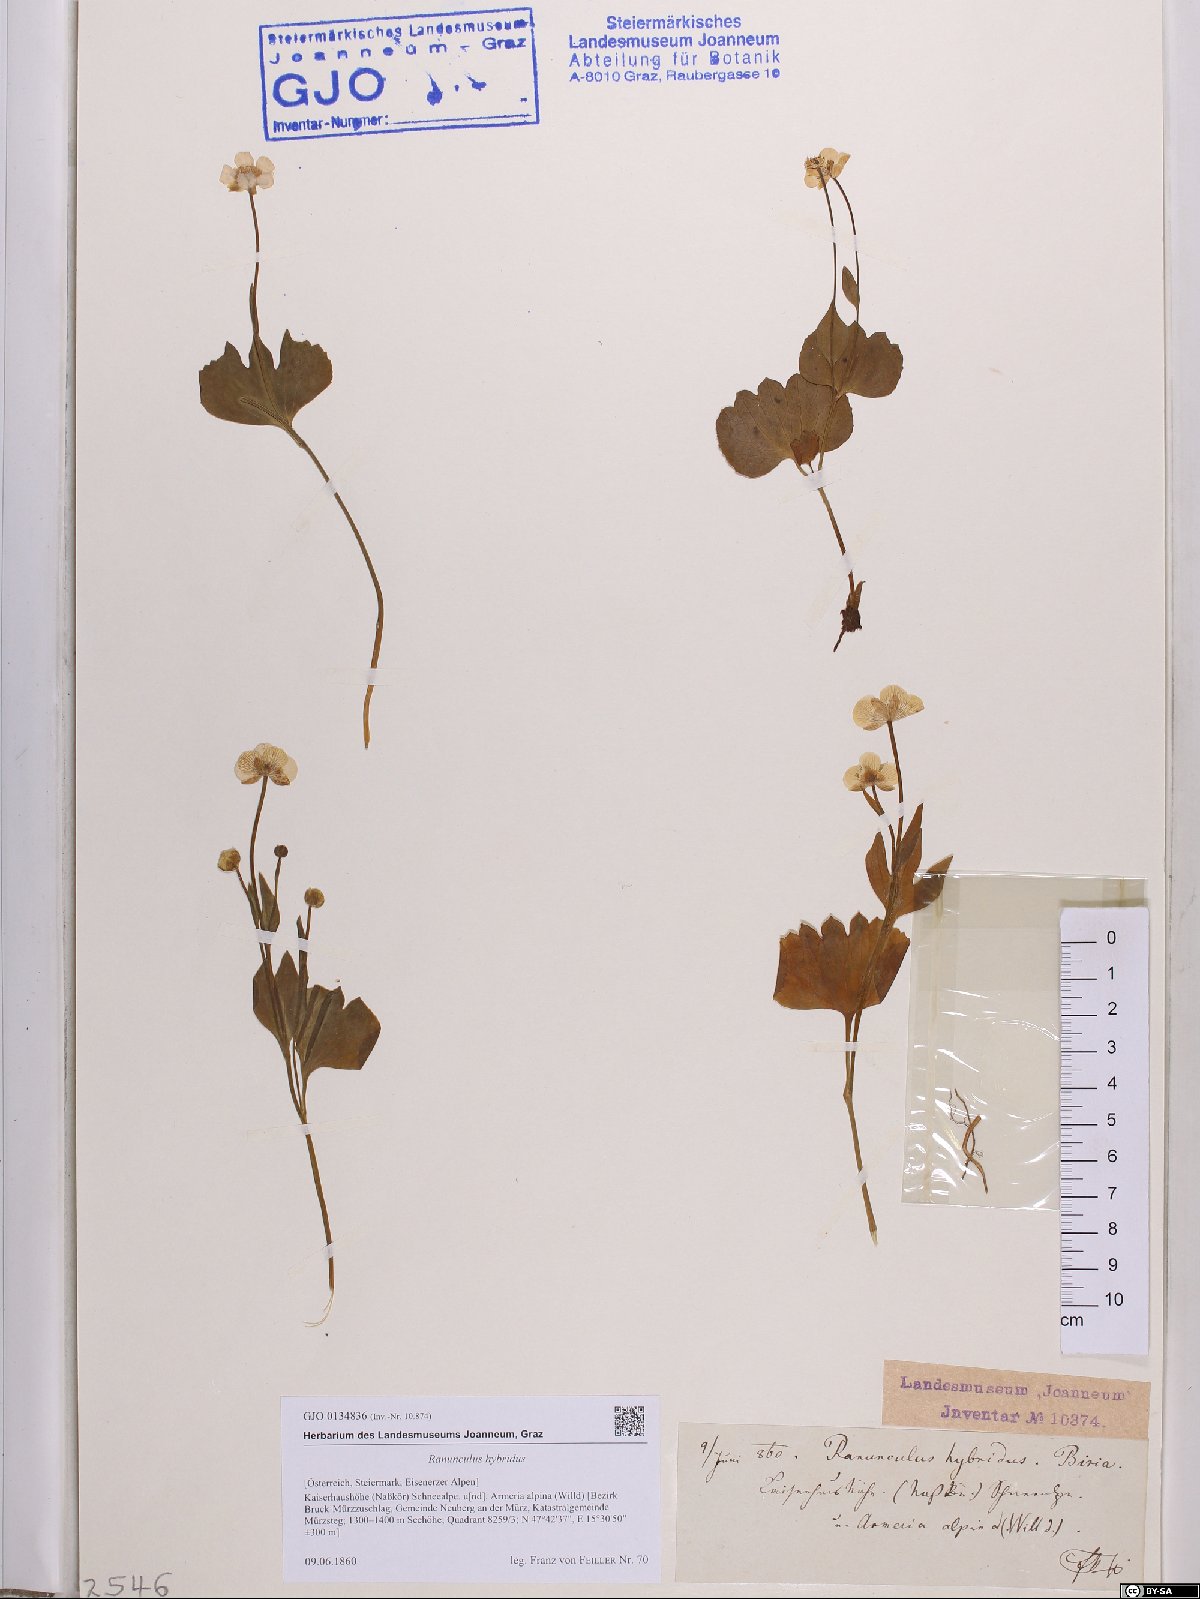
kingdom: Plantae
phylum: Tracheophyta
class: Magnoliopsida
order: Ranunculales
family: Ranunculaceae
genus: Ranunculus
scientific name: Ranunculus hybridus
